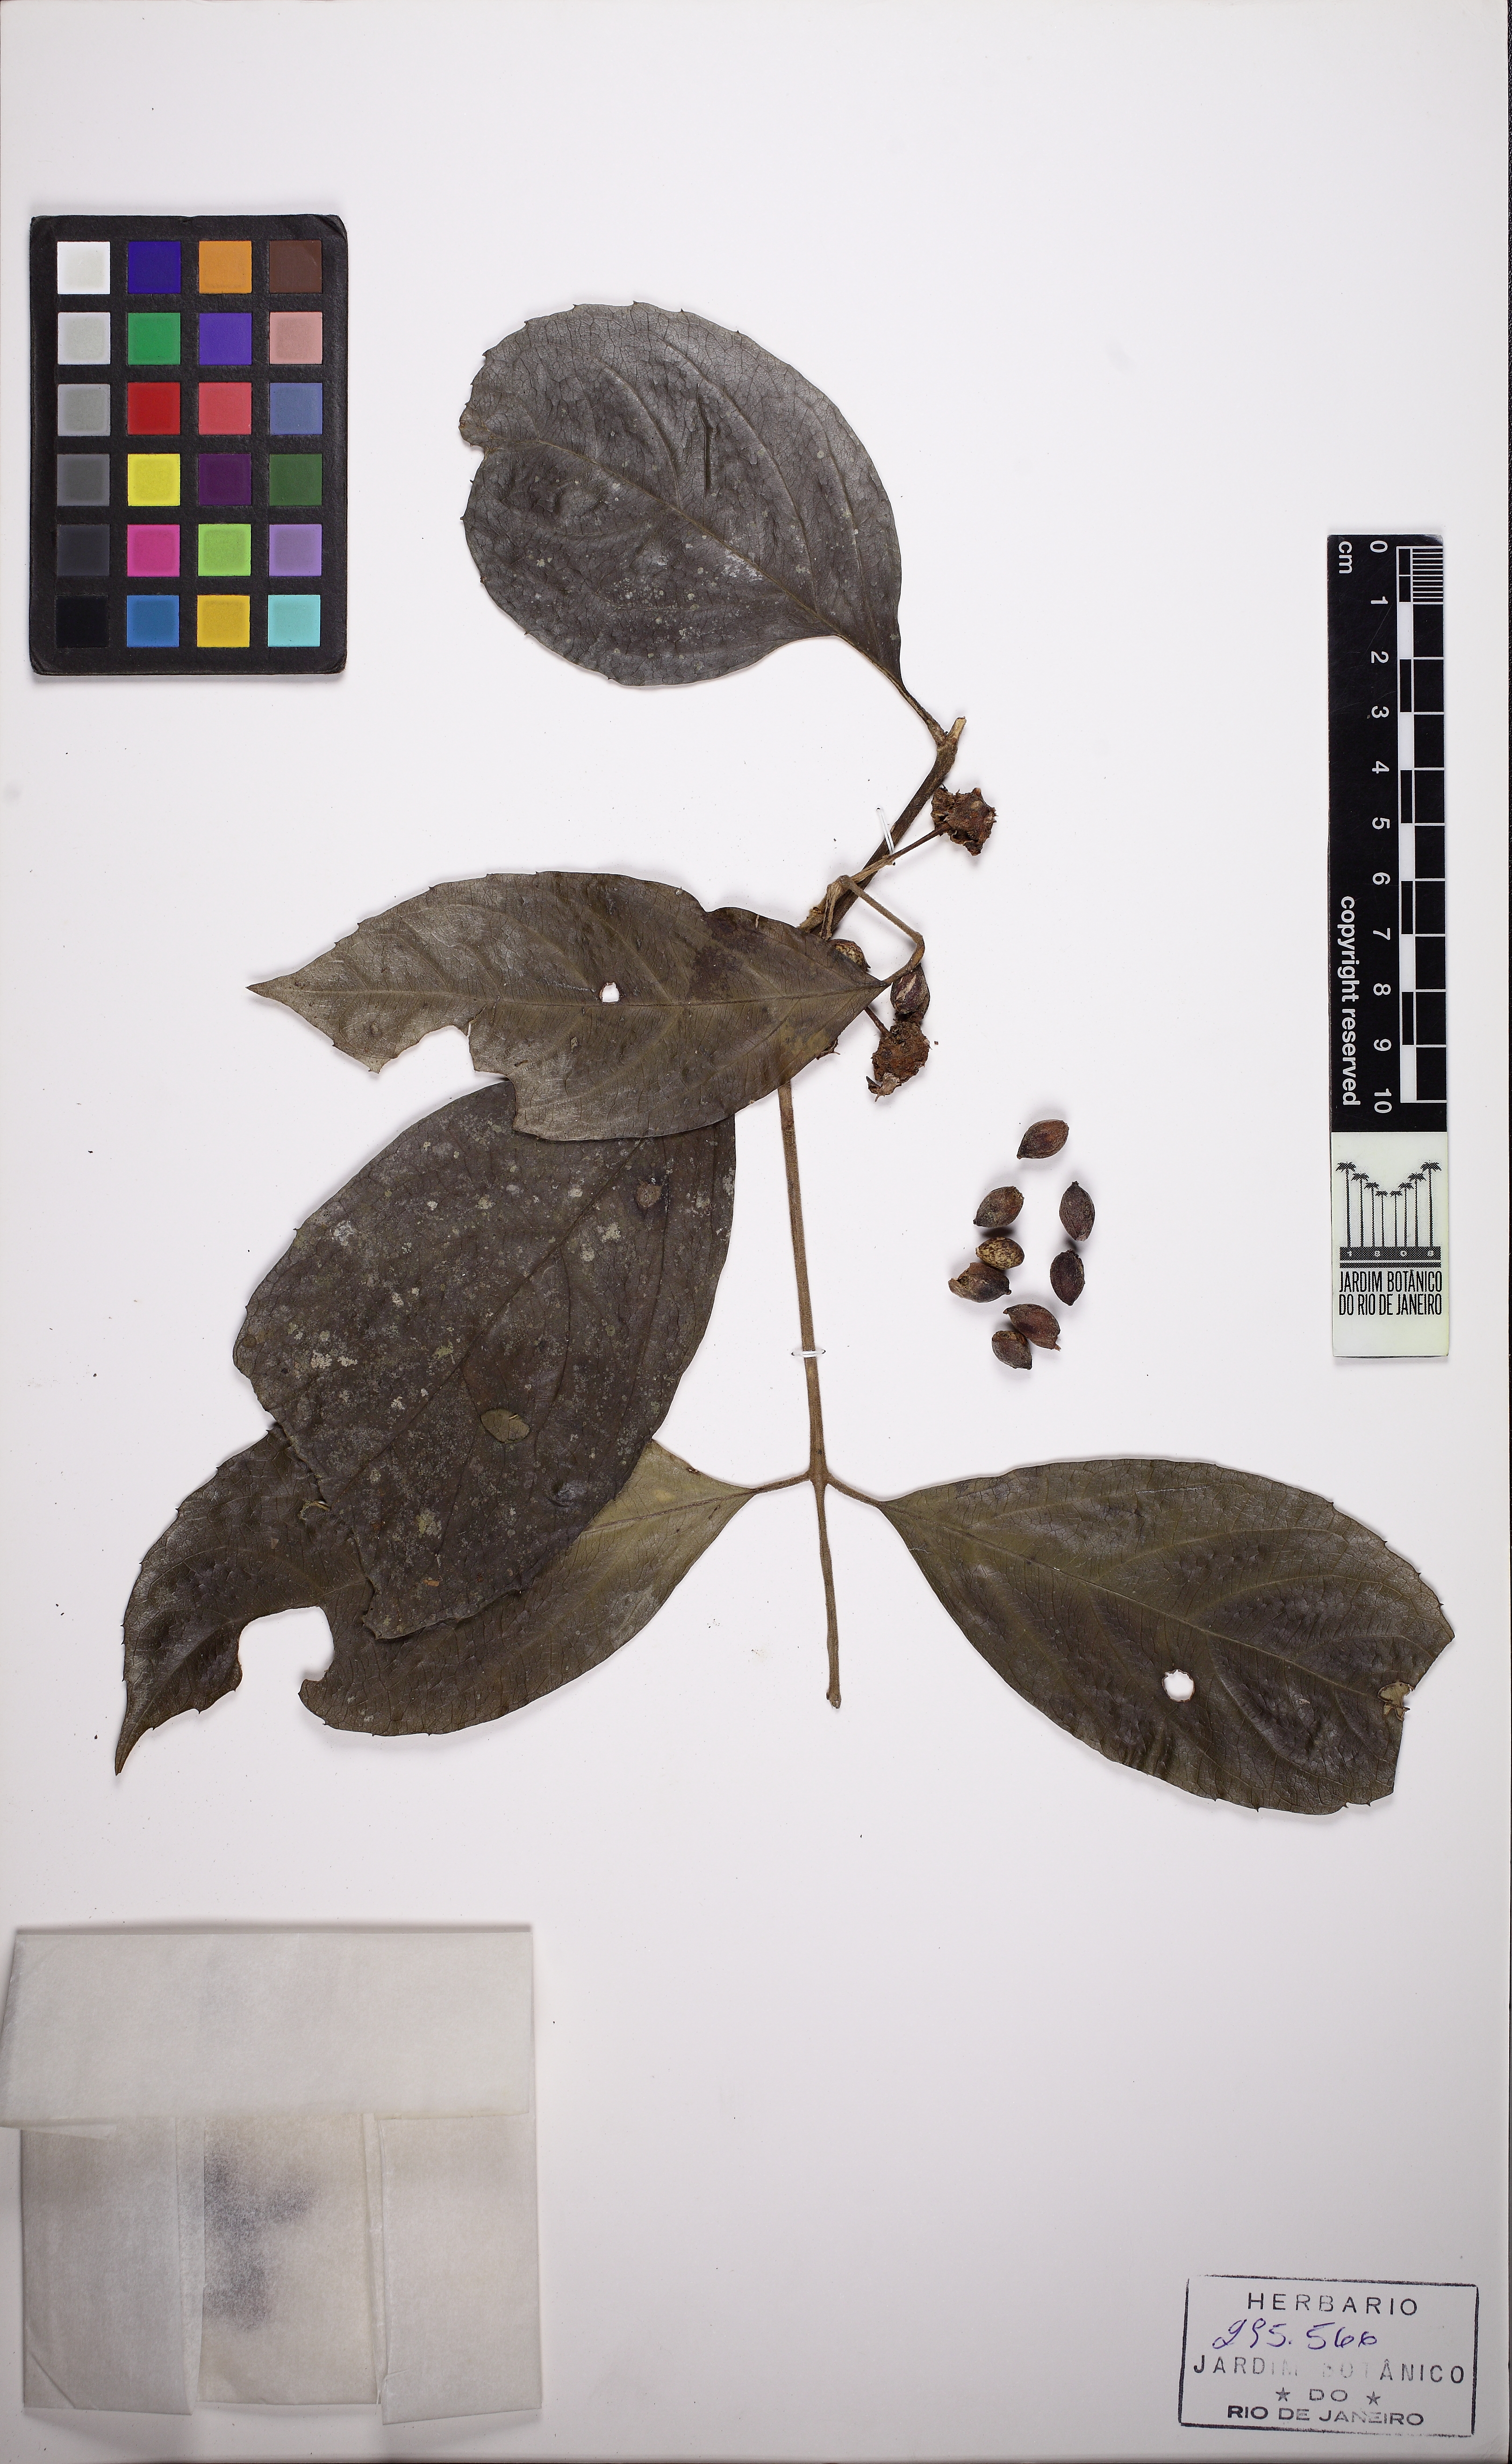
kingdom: Plantae
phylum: Tracheophyta
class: Magnoliopsida
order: Laurales
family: Monimiaceae
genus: Mollinedia
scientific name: Mollinedia umbellata
